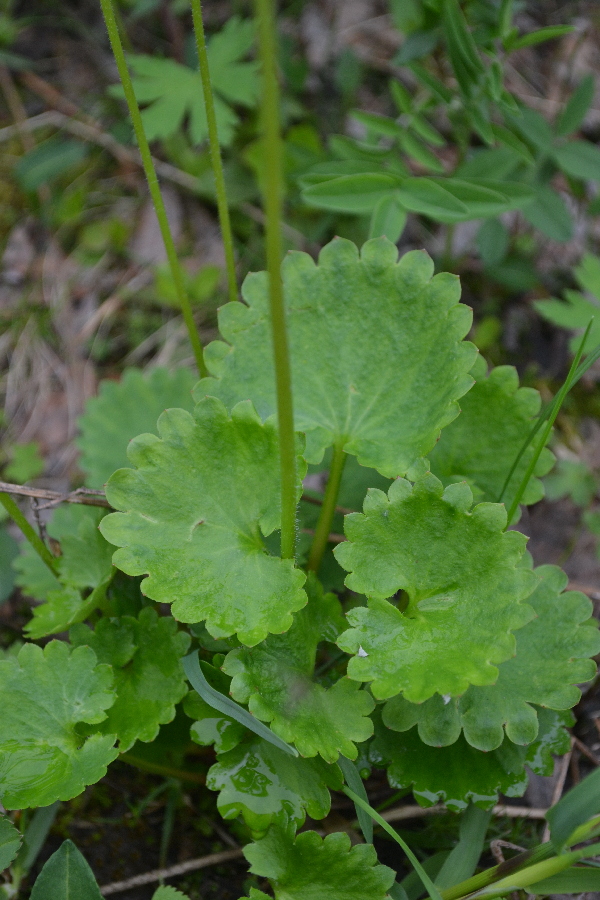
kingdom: Plantae
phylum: Tracheophyta
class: Magnoliopsida
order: Saxifragales
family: Saxifragaceae
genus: Micranthes
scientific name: Micranthes nelsoniana
